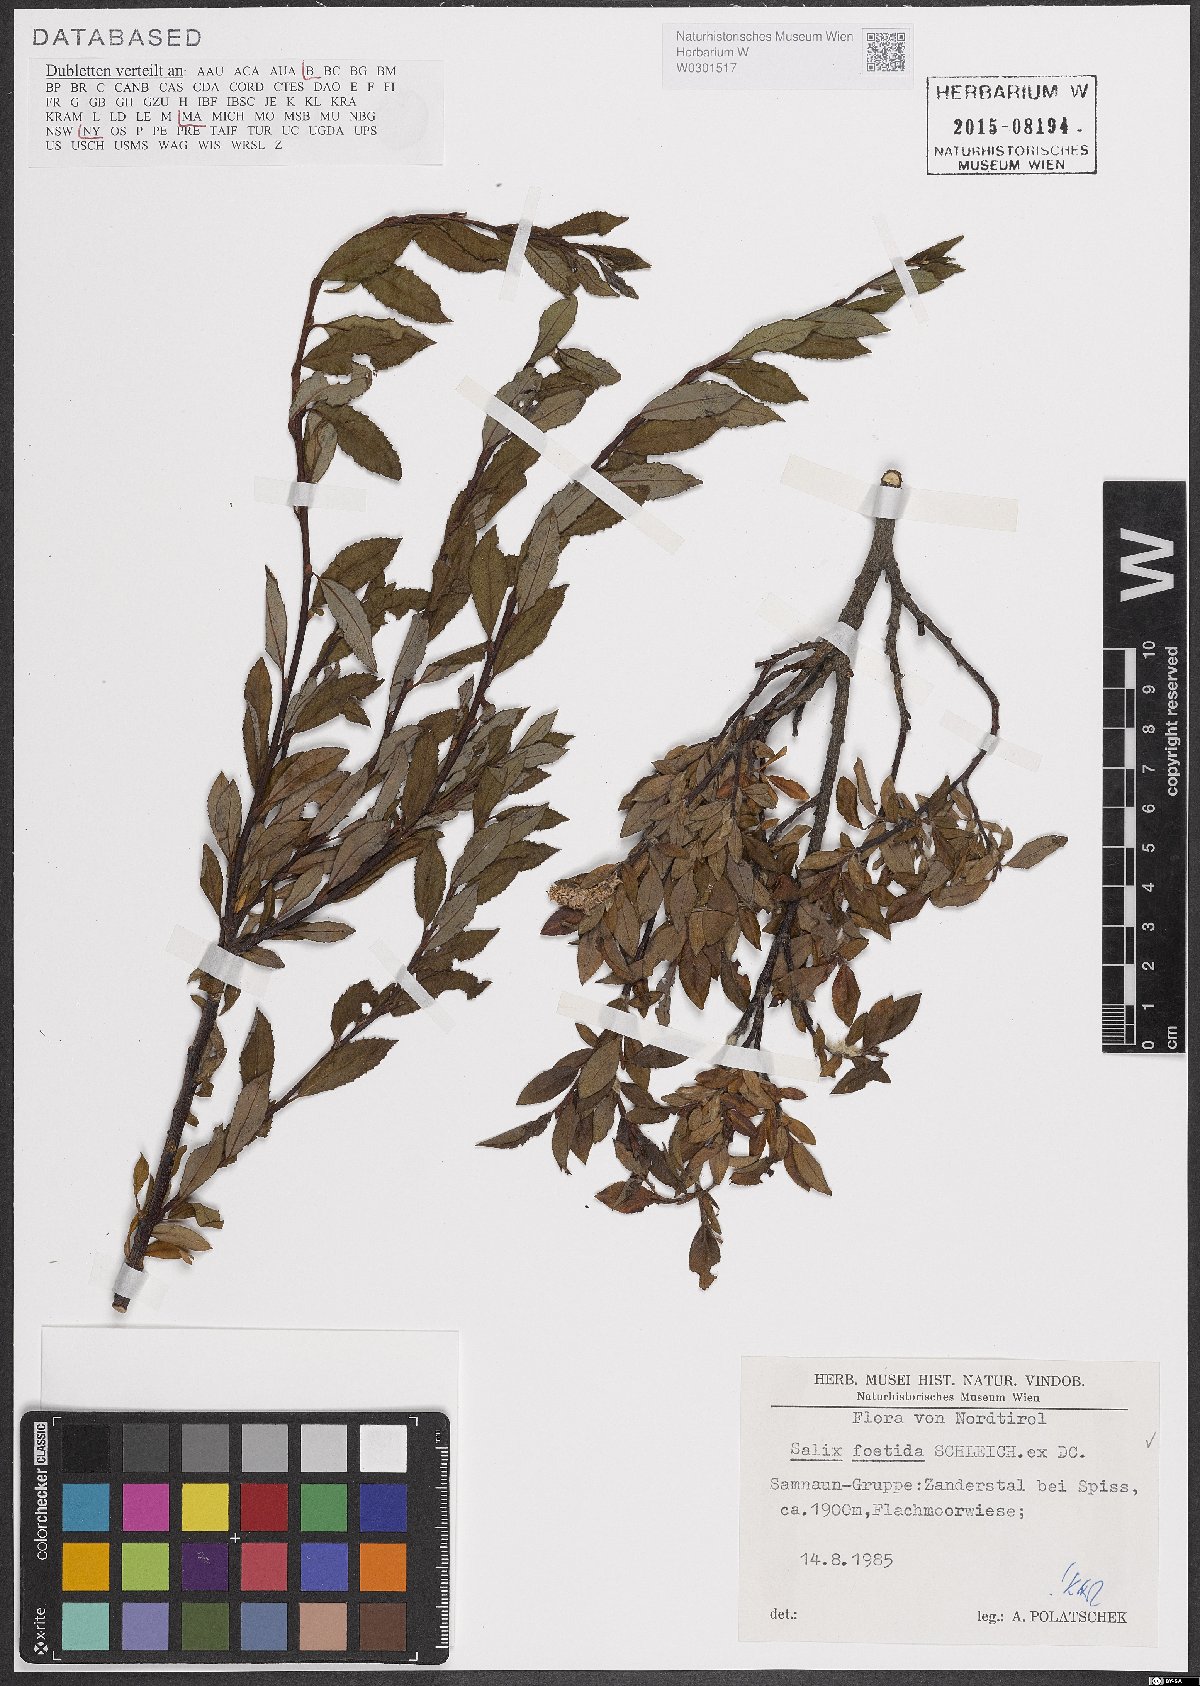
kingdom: Plantae
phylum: Tracheophyta
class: Magnoliopsida
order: Malpighiales
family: Salicaceae
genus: Salix
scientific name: Salix foetida
